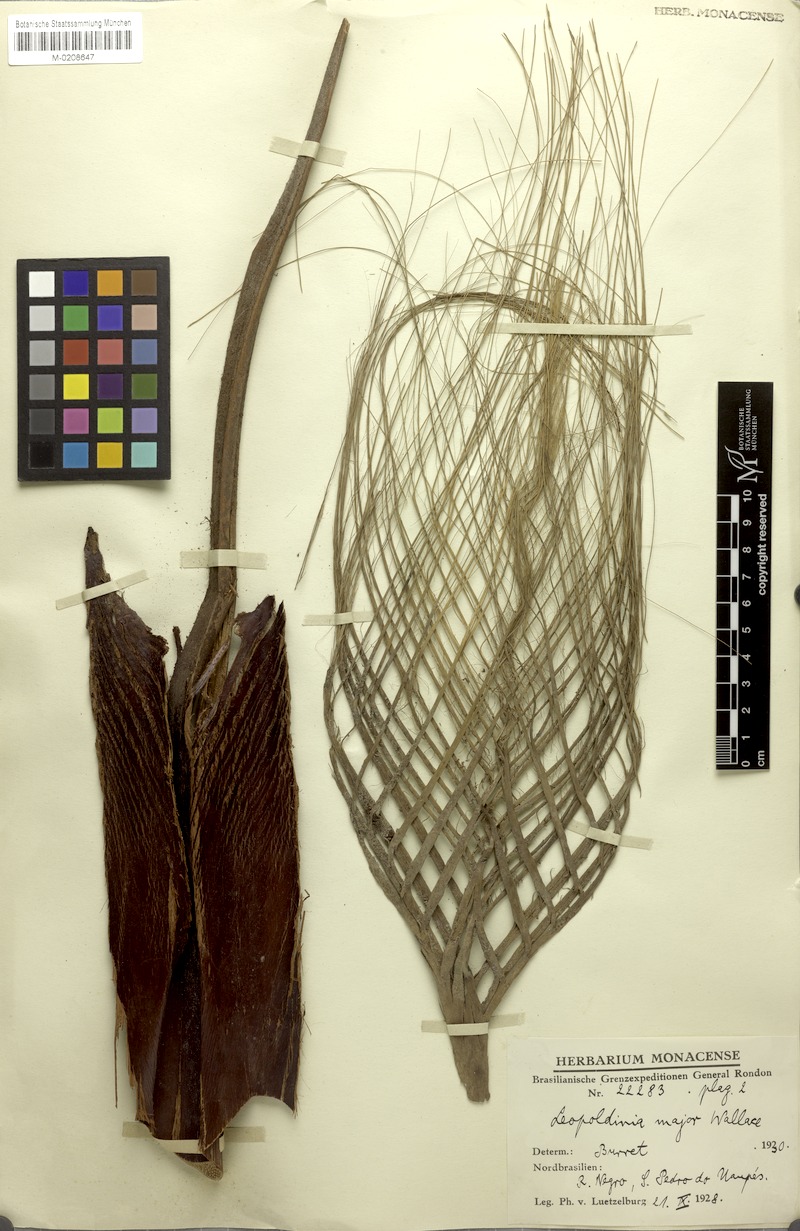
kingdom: Plantae
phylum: Tracheophyta
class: Liliopsida
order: Arecales
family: Arecaceae
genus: Leopoldinia
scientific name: Leopoldinia major
